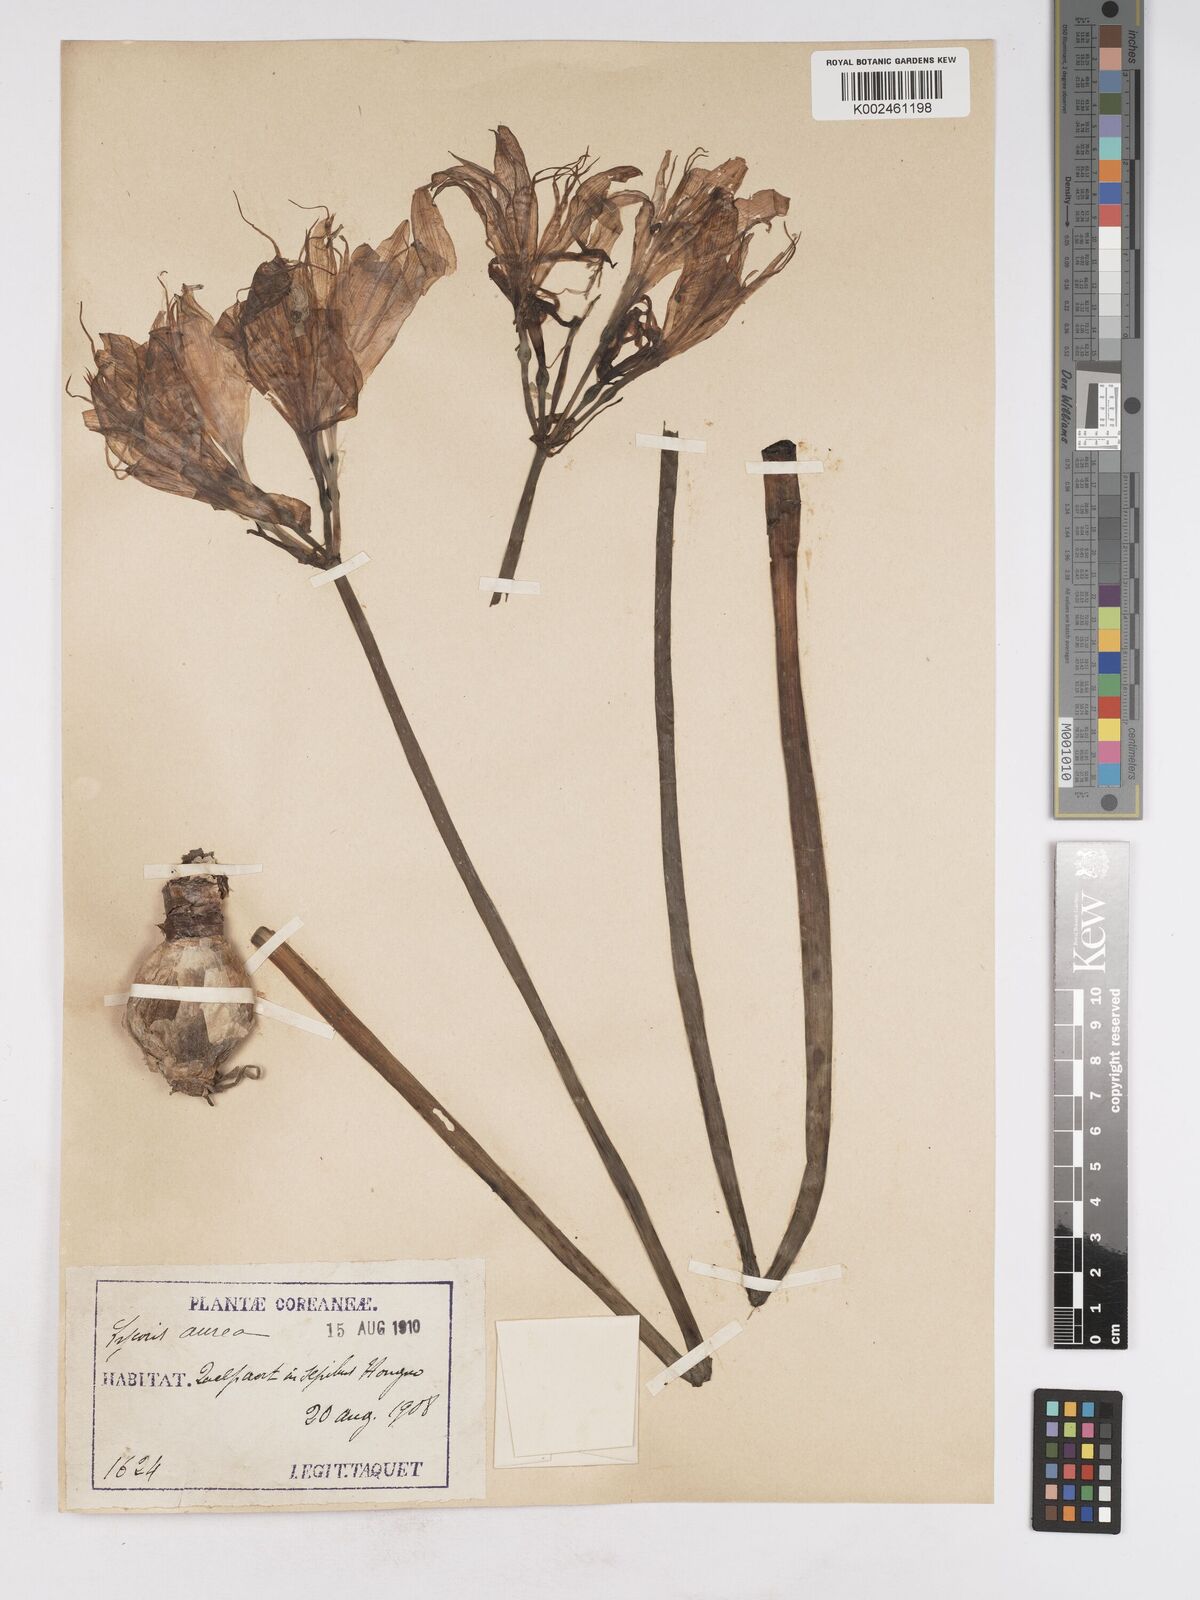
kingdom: Plantae
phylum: Tracheophyta
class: Liliopsida
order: Asparagales
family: Amaryllidaceae
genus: Lycoris
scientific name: Lycoris squamigera
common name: Magic-lily
